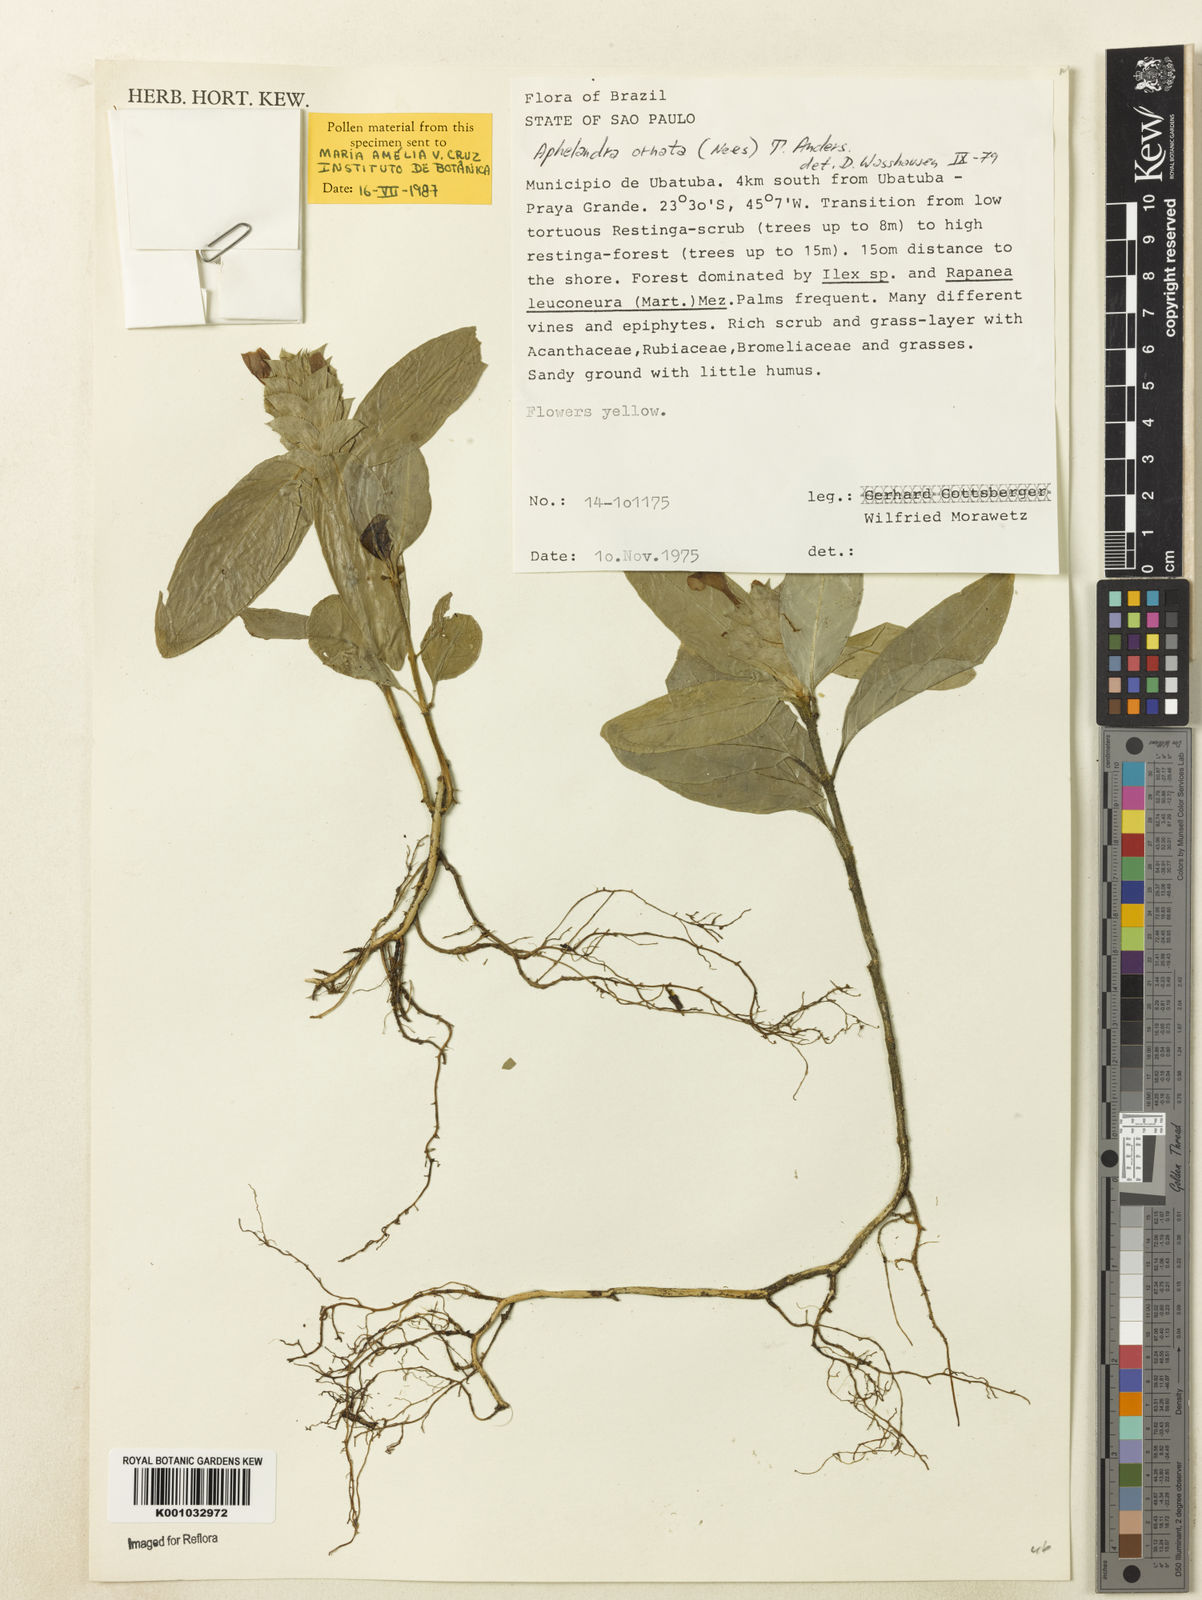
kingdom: Plantae
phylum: Tracheophyta
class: Magnoliopsida
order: Lamiales
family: Acanthaceae
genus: Aphelandra
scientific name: Aphelandra ornata
